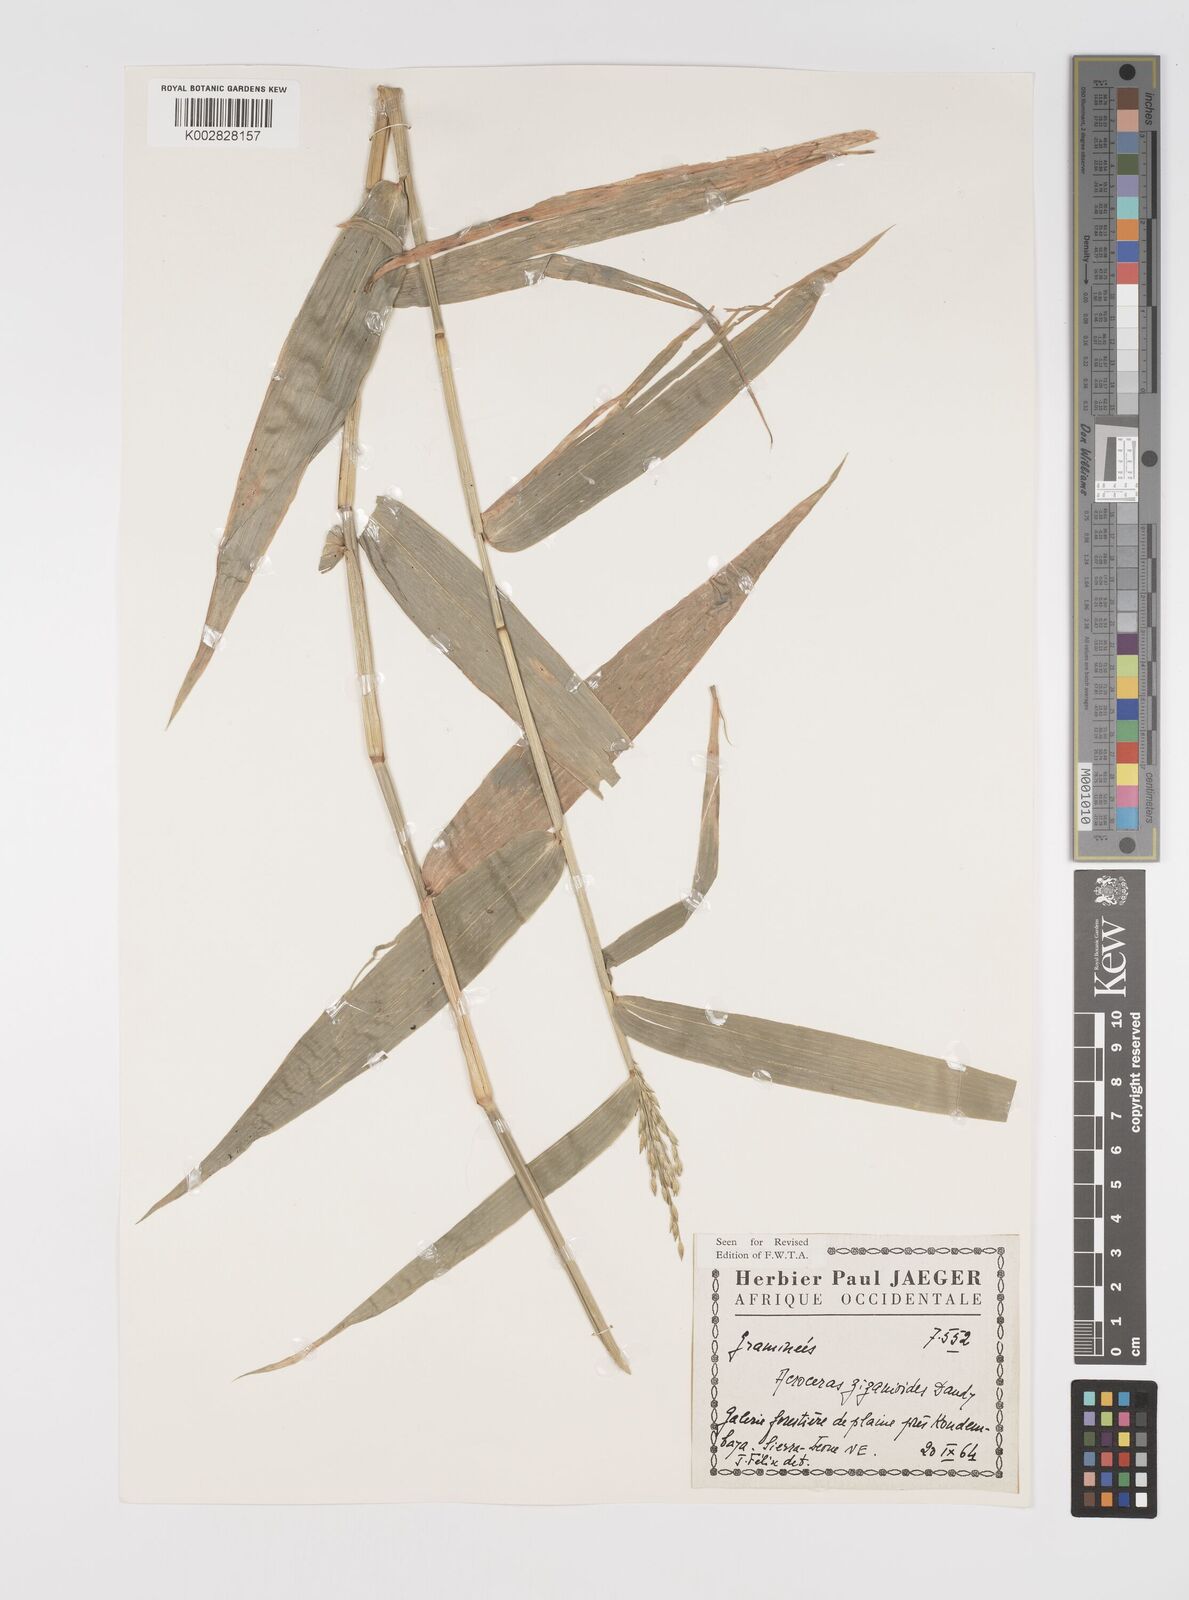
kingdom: Plantae
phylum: Tracheophyta
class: Liliopsida
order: Poales
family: Poaceae
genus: Acroceras
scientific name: Acroceras zizanioides
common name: Oat grass
